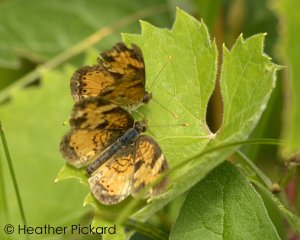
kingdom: Animalia
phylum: Arthropoda
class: Insecta
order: Lepidoptera
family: Nymphalidae
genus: Phyciodes
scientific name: Phyciodes tharos
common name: Northern Crescent
